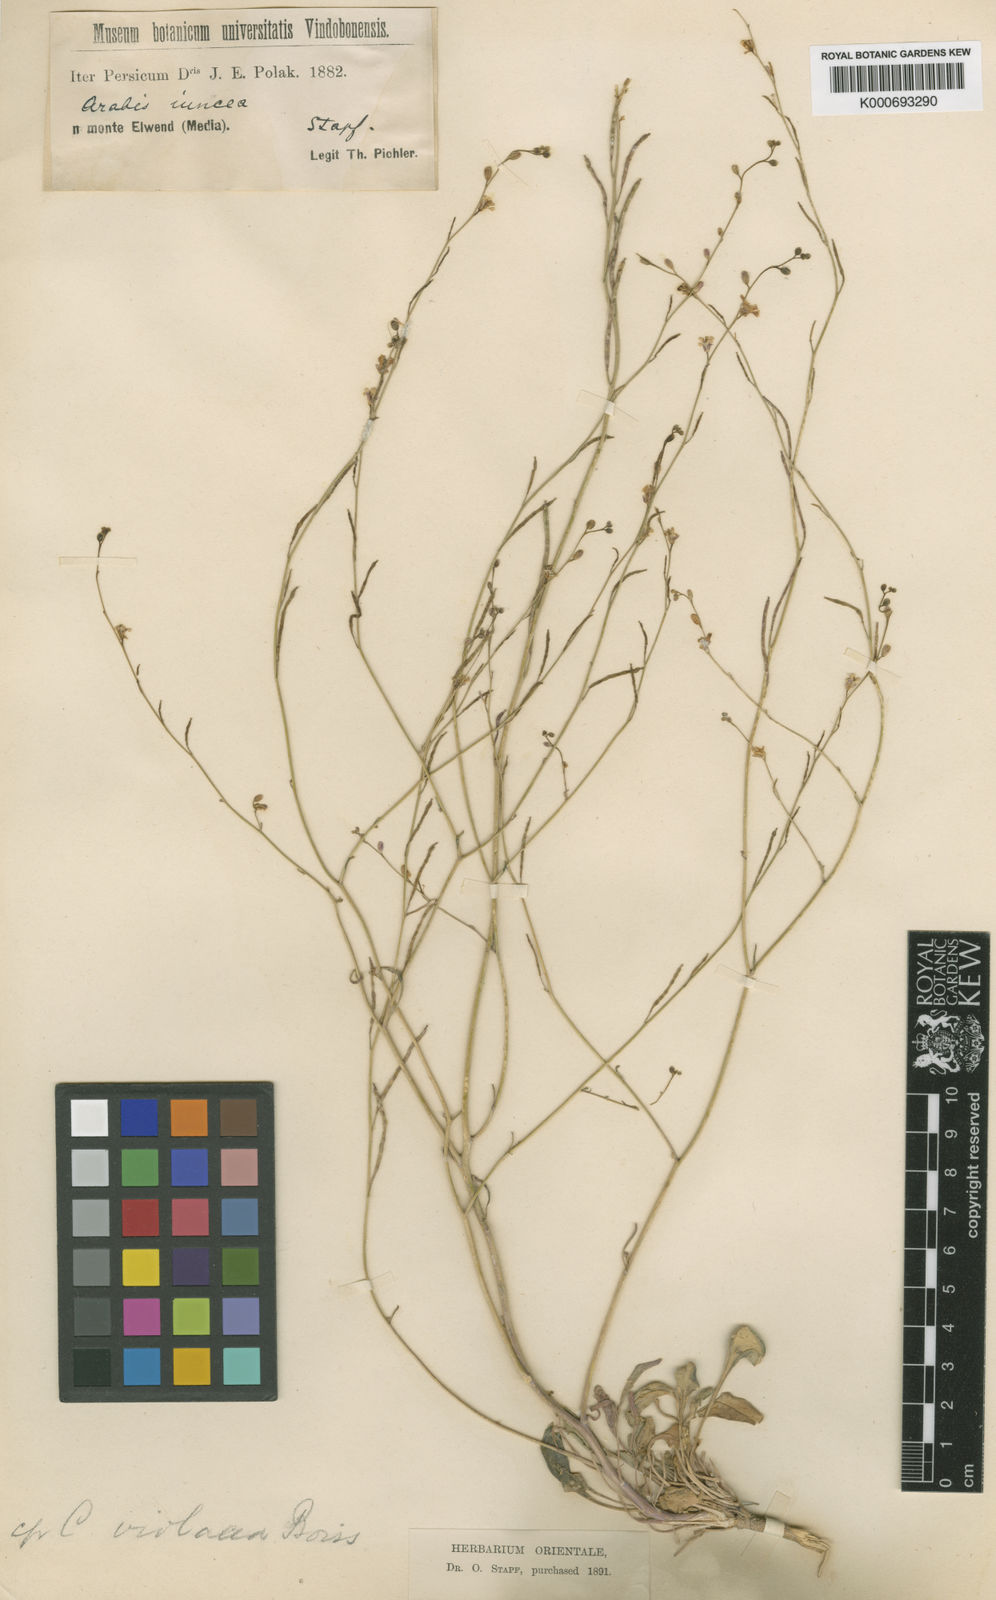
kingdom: Plantae
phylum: Tracheophyta
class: Magnoliopsida
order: Brassicales
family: Brassicaceae
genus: Arabis
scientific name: Arabis juncea
